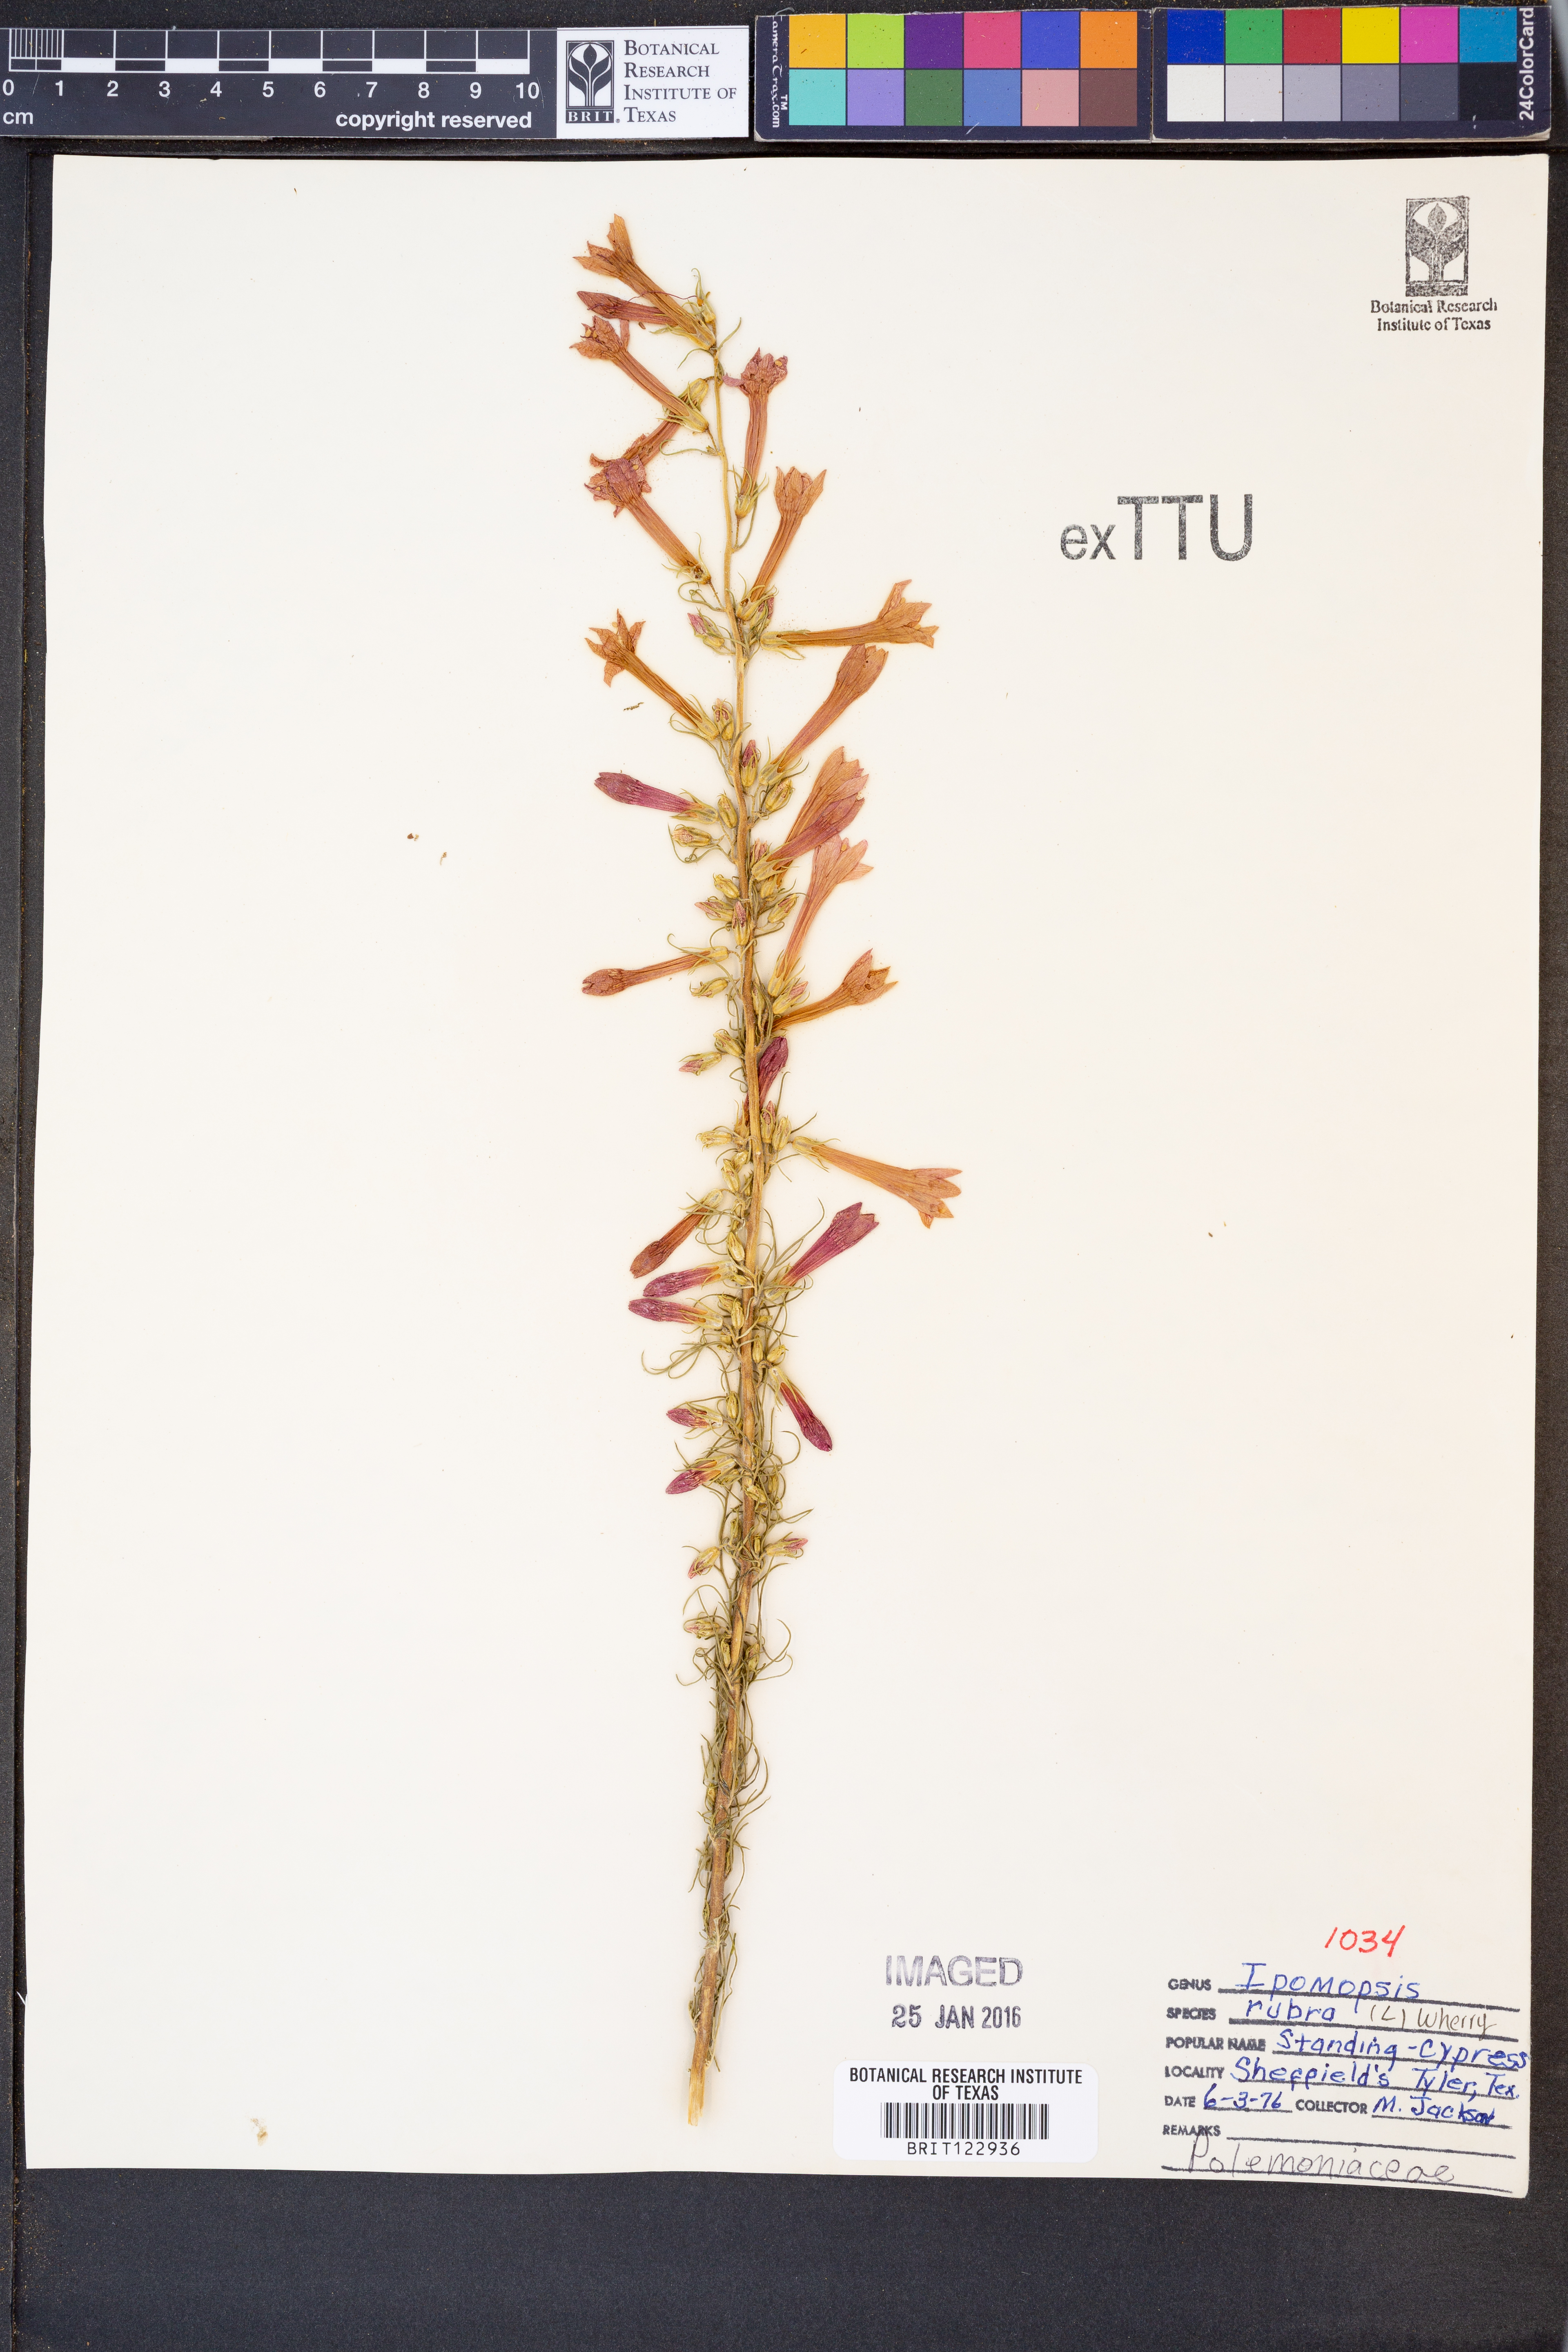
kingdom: Plantae
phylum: Tracheophyta
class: Magnoliopsida
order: Ericales
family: Polemoniaceae
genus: Ipomopsis
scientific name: Ipomopsis rubra
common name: Skyrocket
